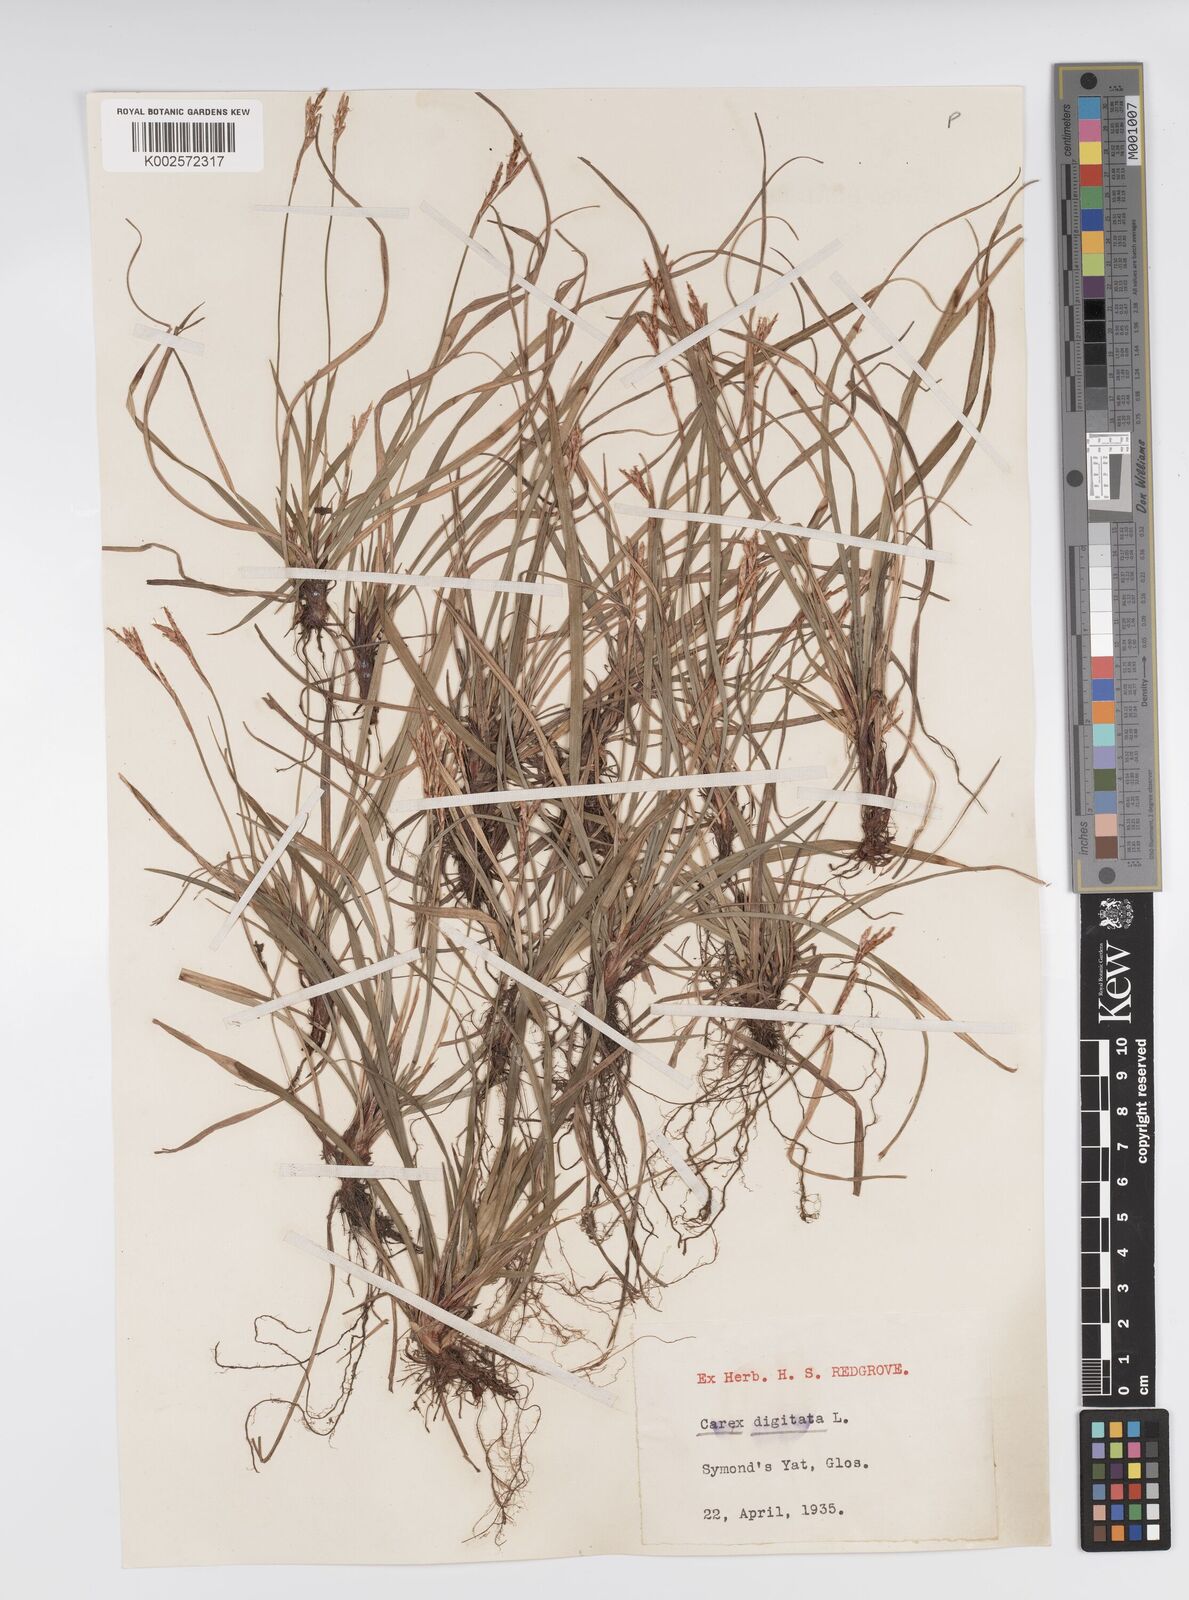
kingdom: Plantae
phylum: Tracheophyta
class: Liliopsida
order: Poales
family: Cyperaceae
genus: Carex
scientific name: Carex digitata
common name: Fingered sedge
